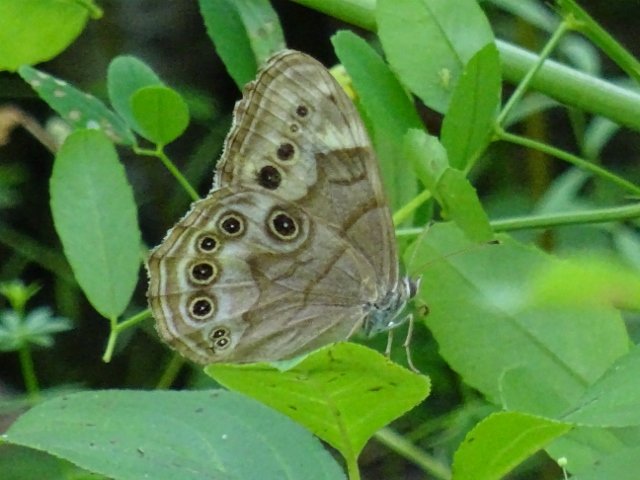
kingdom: Animalia
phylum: Arthropoda
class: Insecta
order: Lepidoptera
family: Nymphalidae
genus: Lethe
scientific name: Lethe anthedon
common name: Northern Pearly-Eye
